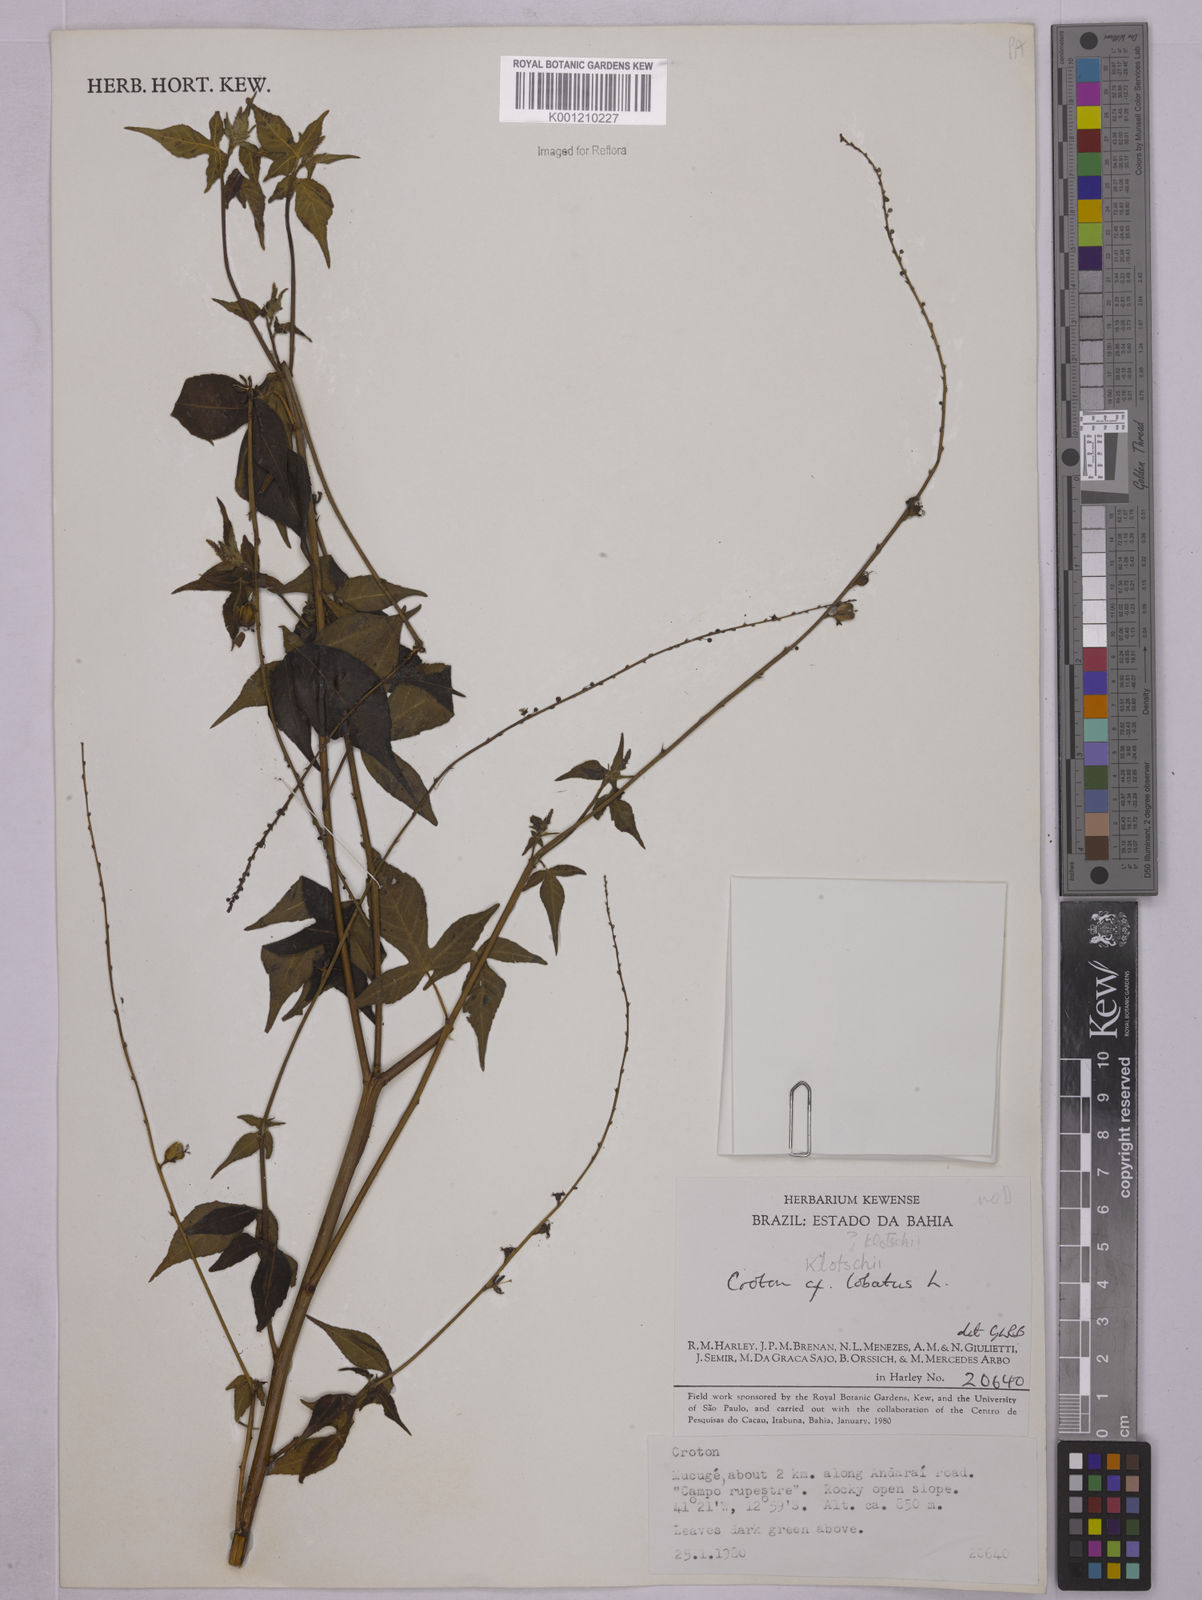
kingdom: Plantae
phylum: Tracheophyta
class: Magnoliopsida
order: Malpighiales
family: Euphorbiaceae
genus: Astraea
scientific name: Astraea lobata
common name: Lobed croton
